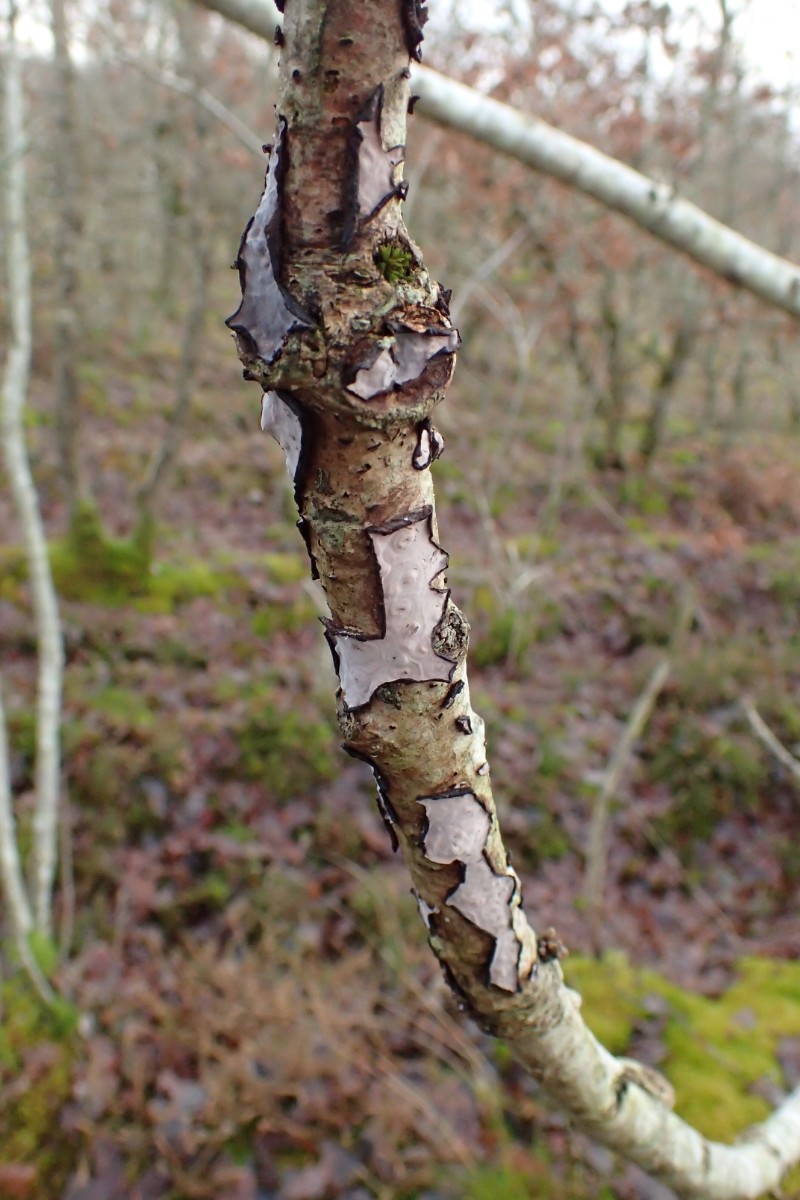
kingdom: Fungi
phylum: Basidiomycota
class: Agaricomycetes
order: Russulales
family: Peniophoraceae
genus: Peniophora
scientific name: Peniophora quercina
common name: ege-voksskind
